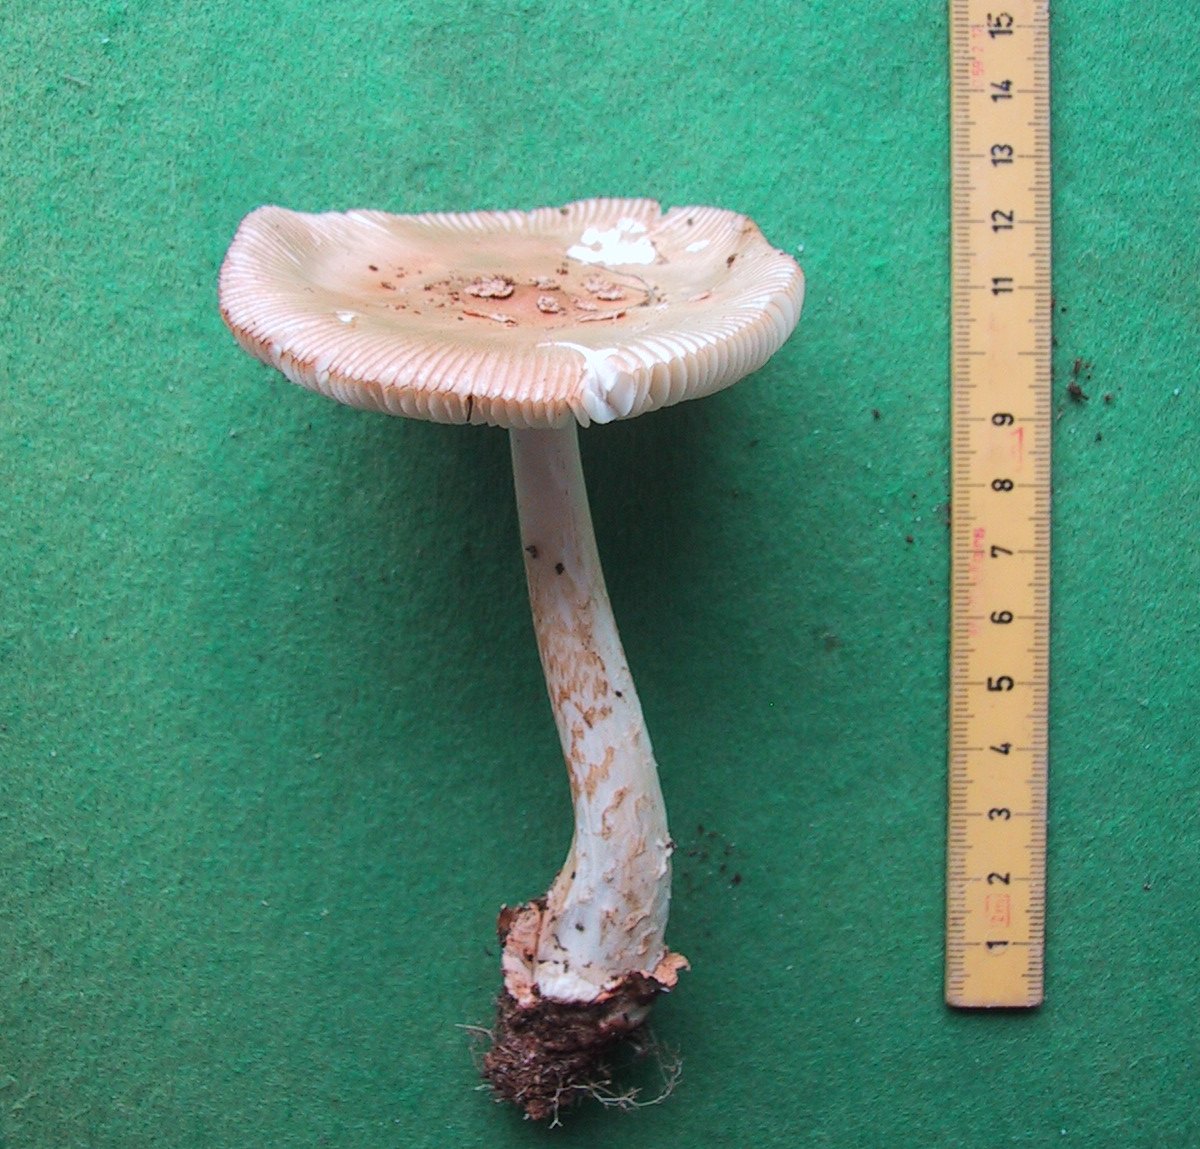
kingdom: Fungi
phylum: Basidiomycota
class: Agaricomycetes
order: Agaricales
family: Amanitaceae
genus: Amanita
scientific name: Amanita crocea
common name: gylden kam-fluesvamp
